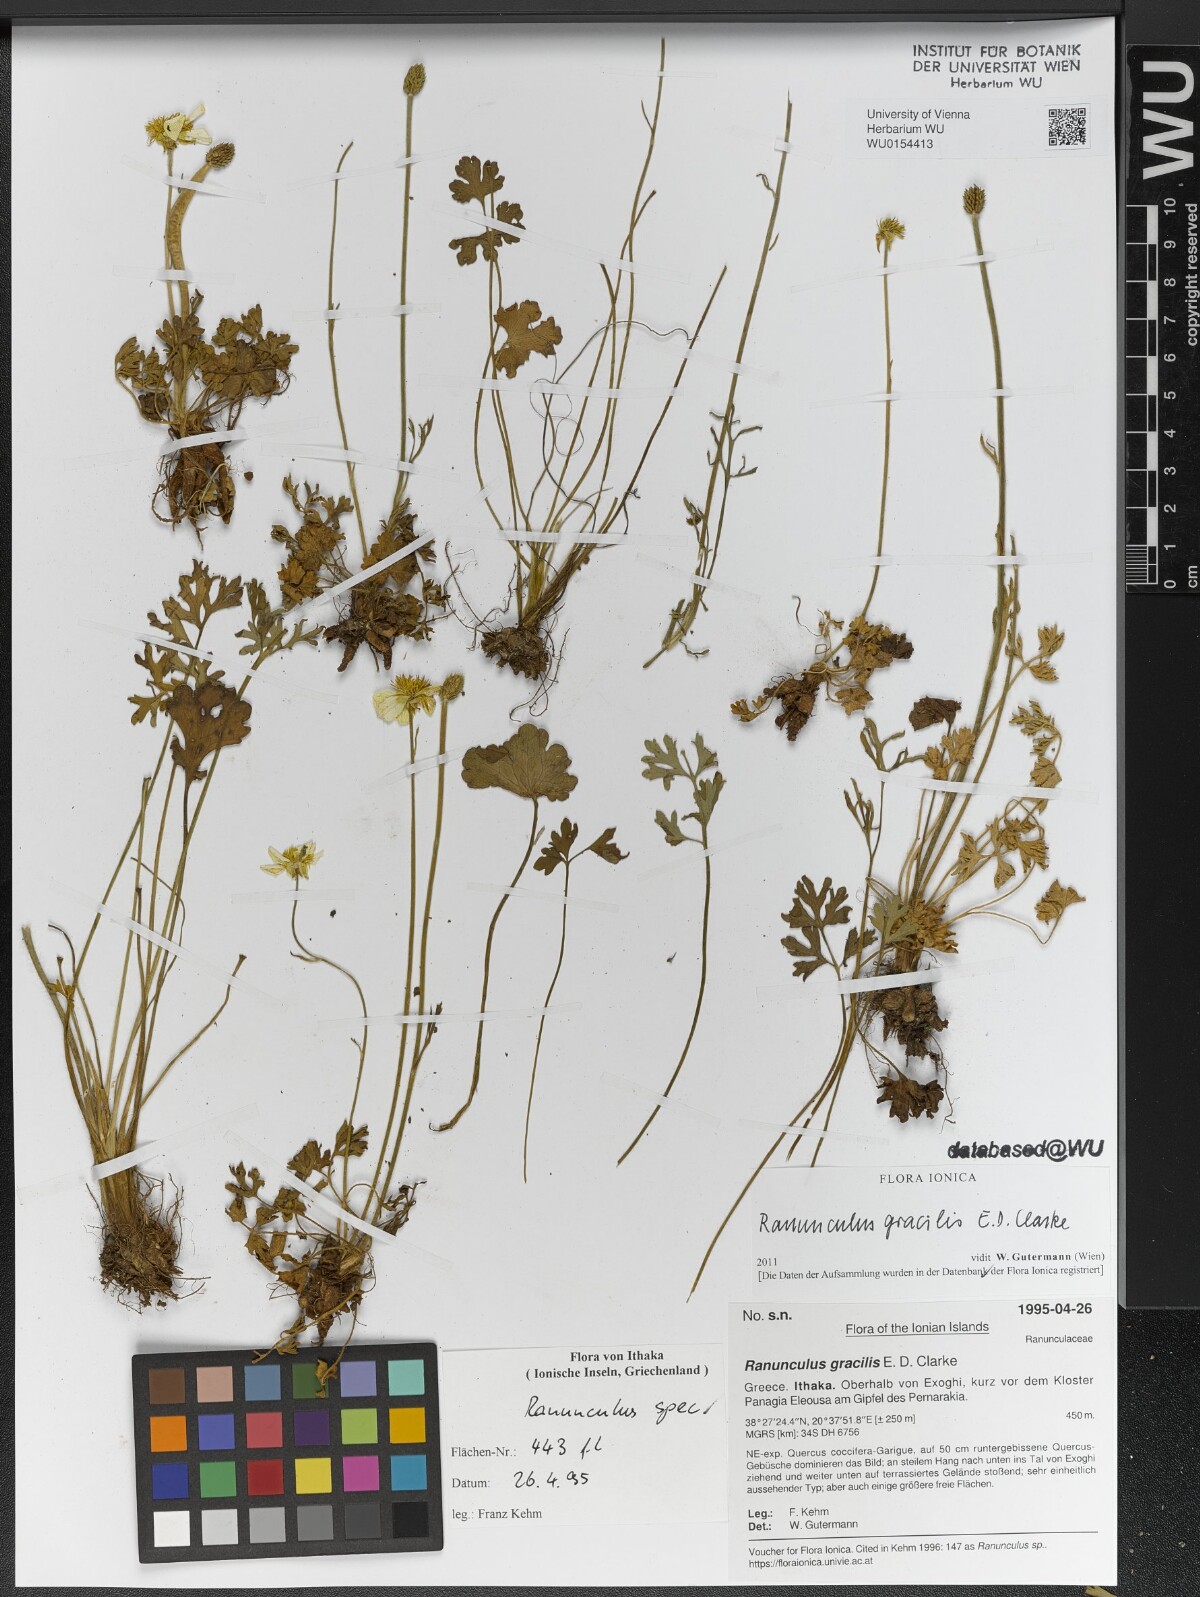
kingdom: Plantae
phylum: Tracheophyta
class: Magnoliopsida
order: Ranunculales
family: Ranunculaceae
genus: Ranunculus
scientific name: Ranunculus gracilis
